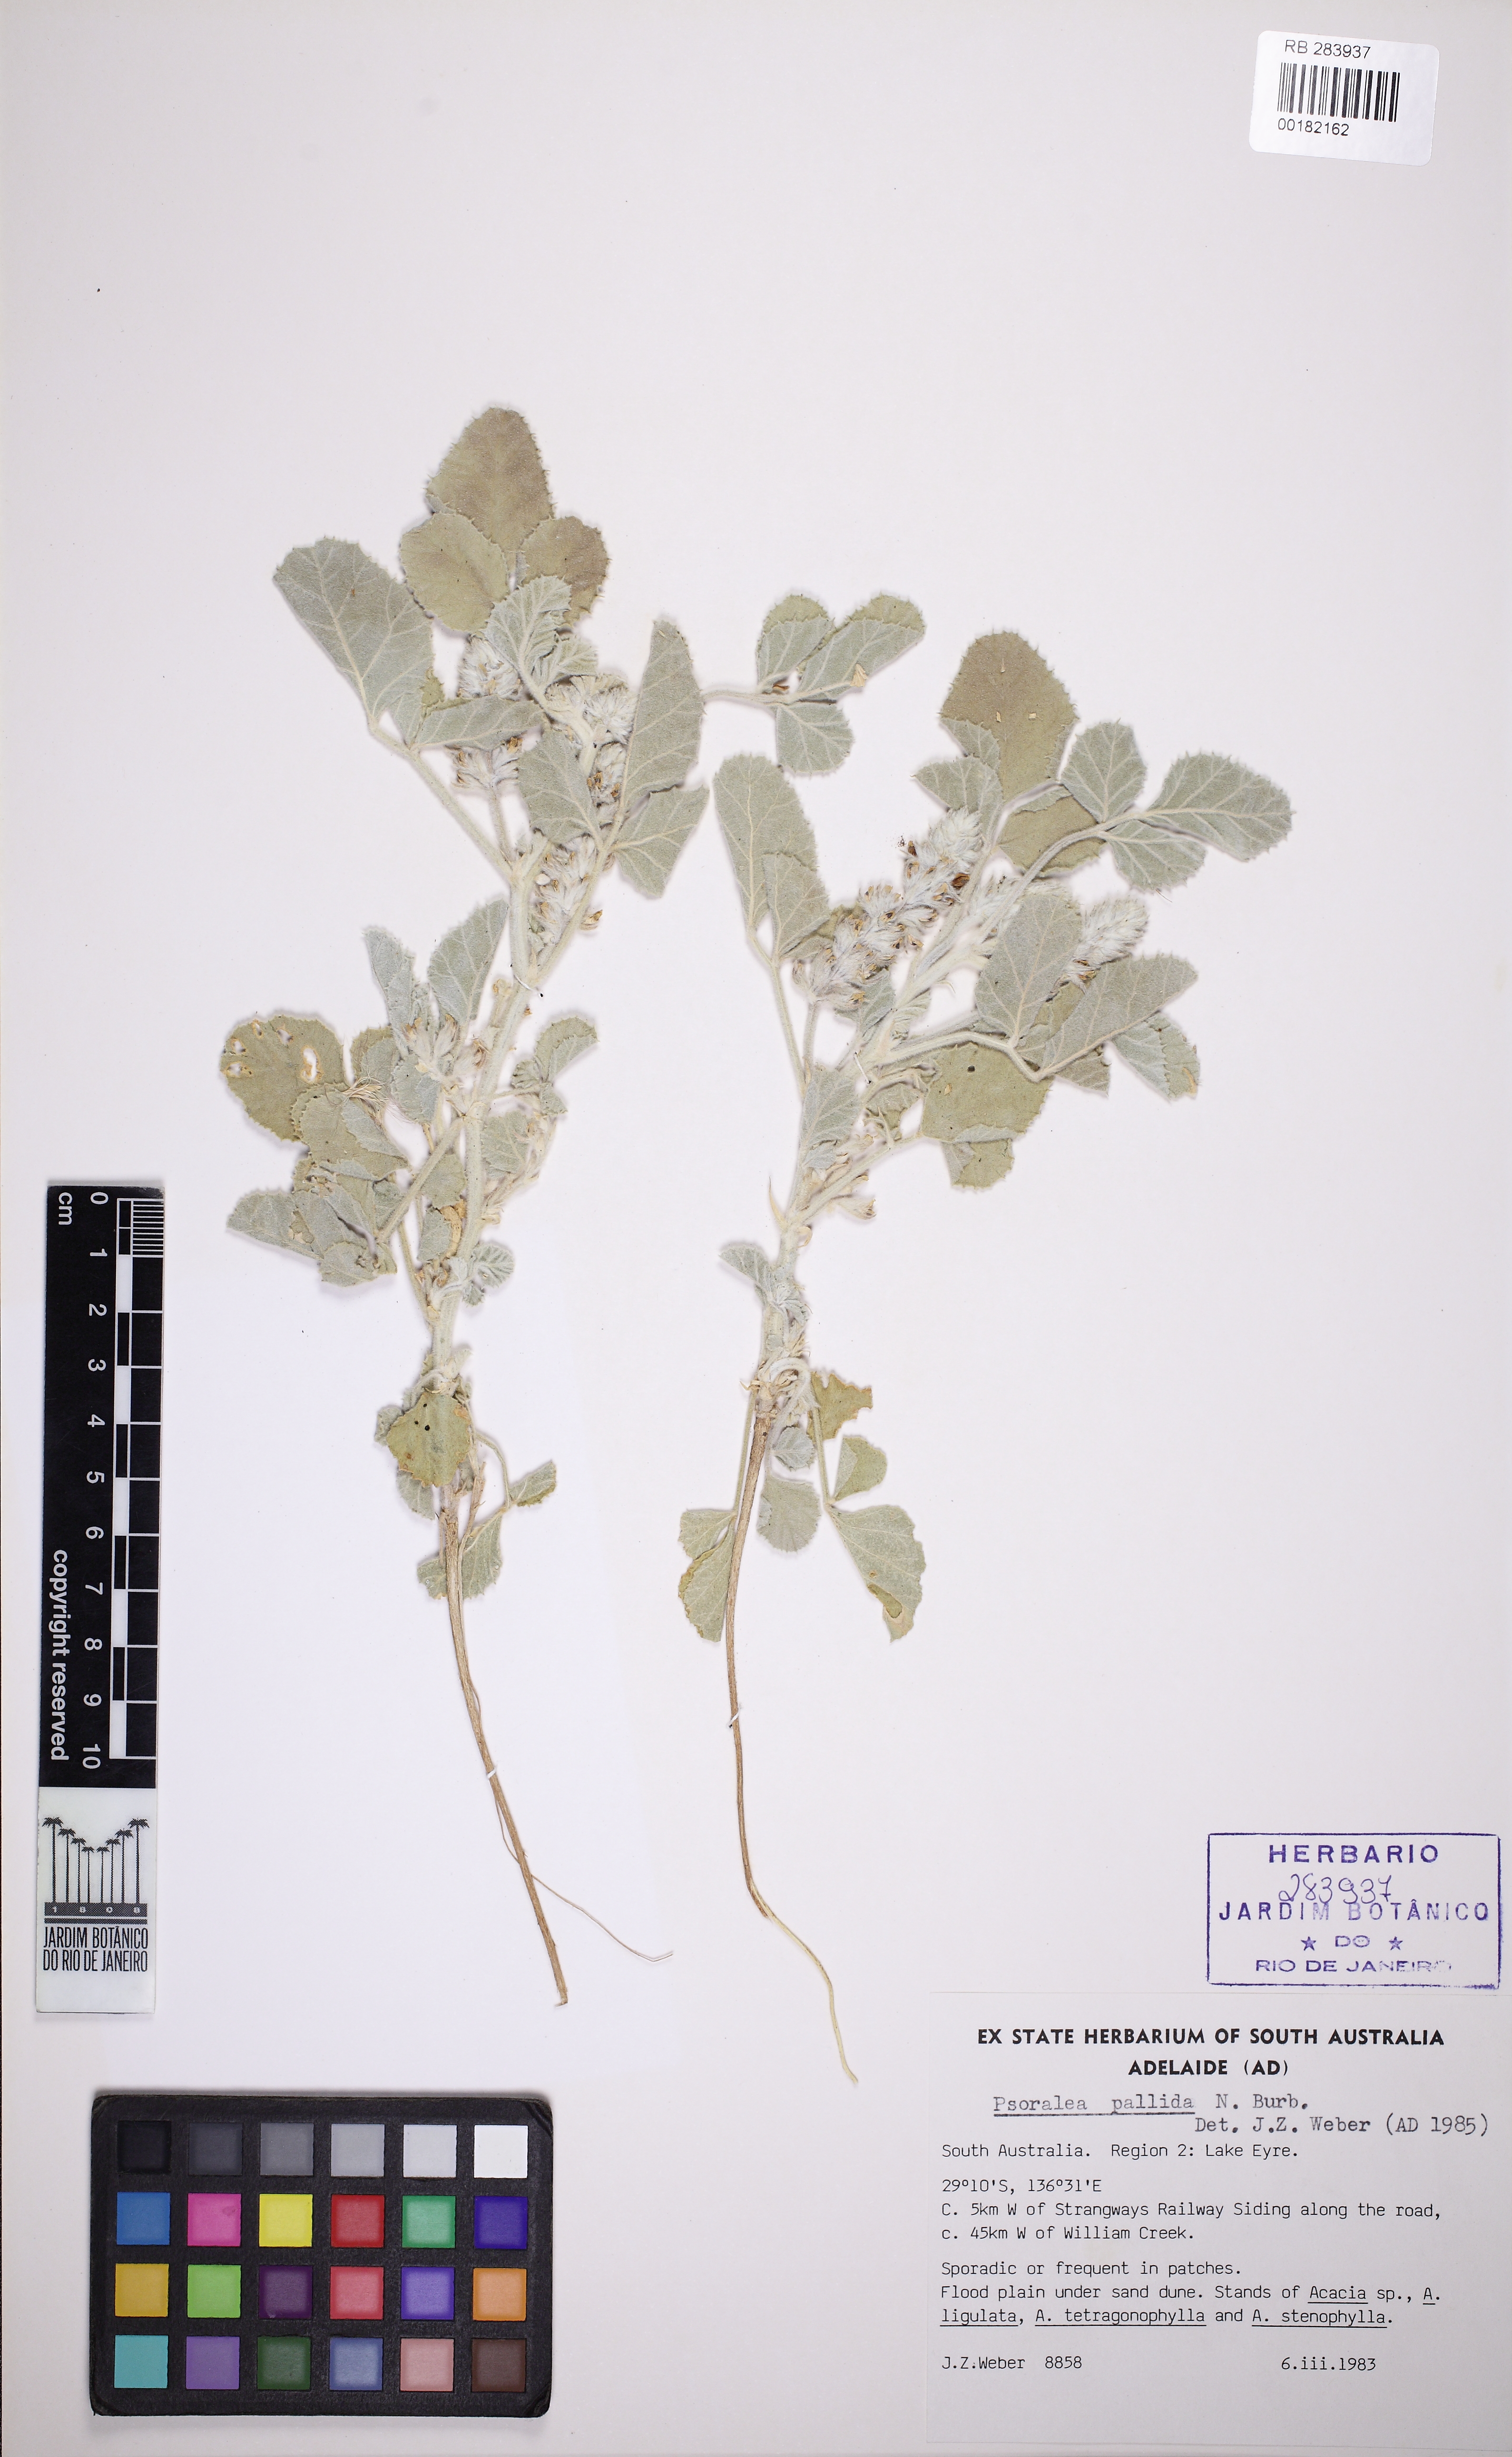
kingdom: Plantae
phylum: Tracheophyta
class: Magnoliopsida
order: Fabales
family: Fabaceae
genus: Cullen
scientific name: Cullen pallidum
